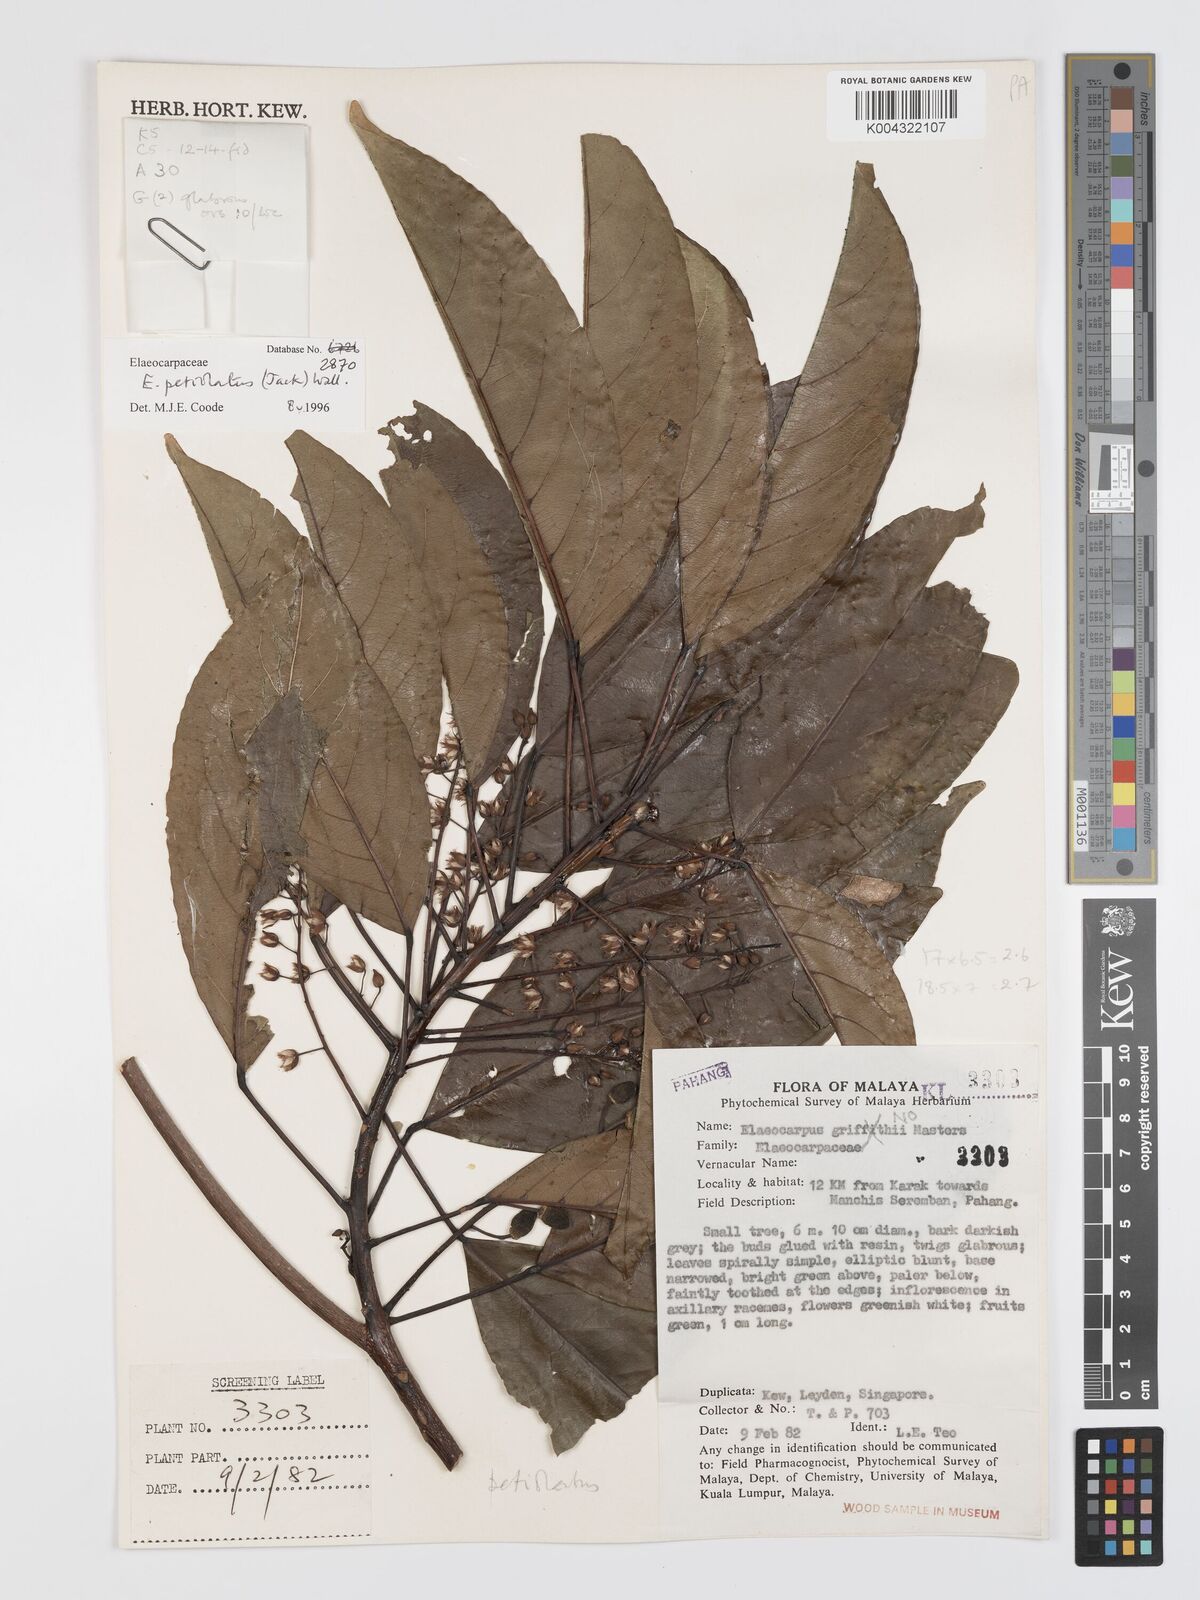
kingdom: Plantae
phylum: Tracheophyta
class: Magnoliopsida
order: Oxalidales
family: Elaeocarpaceae
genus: Elaeocarpus
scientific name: Elaeocarpus petiolatus
